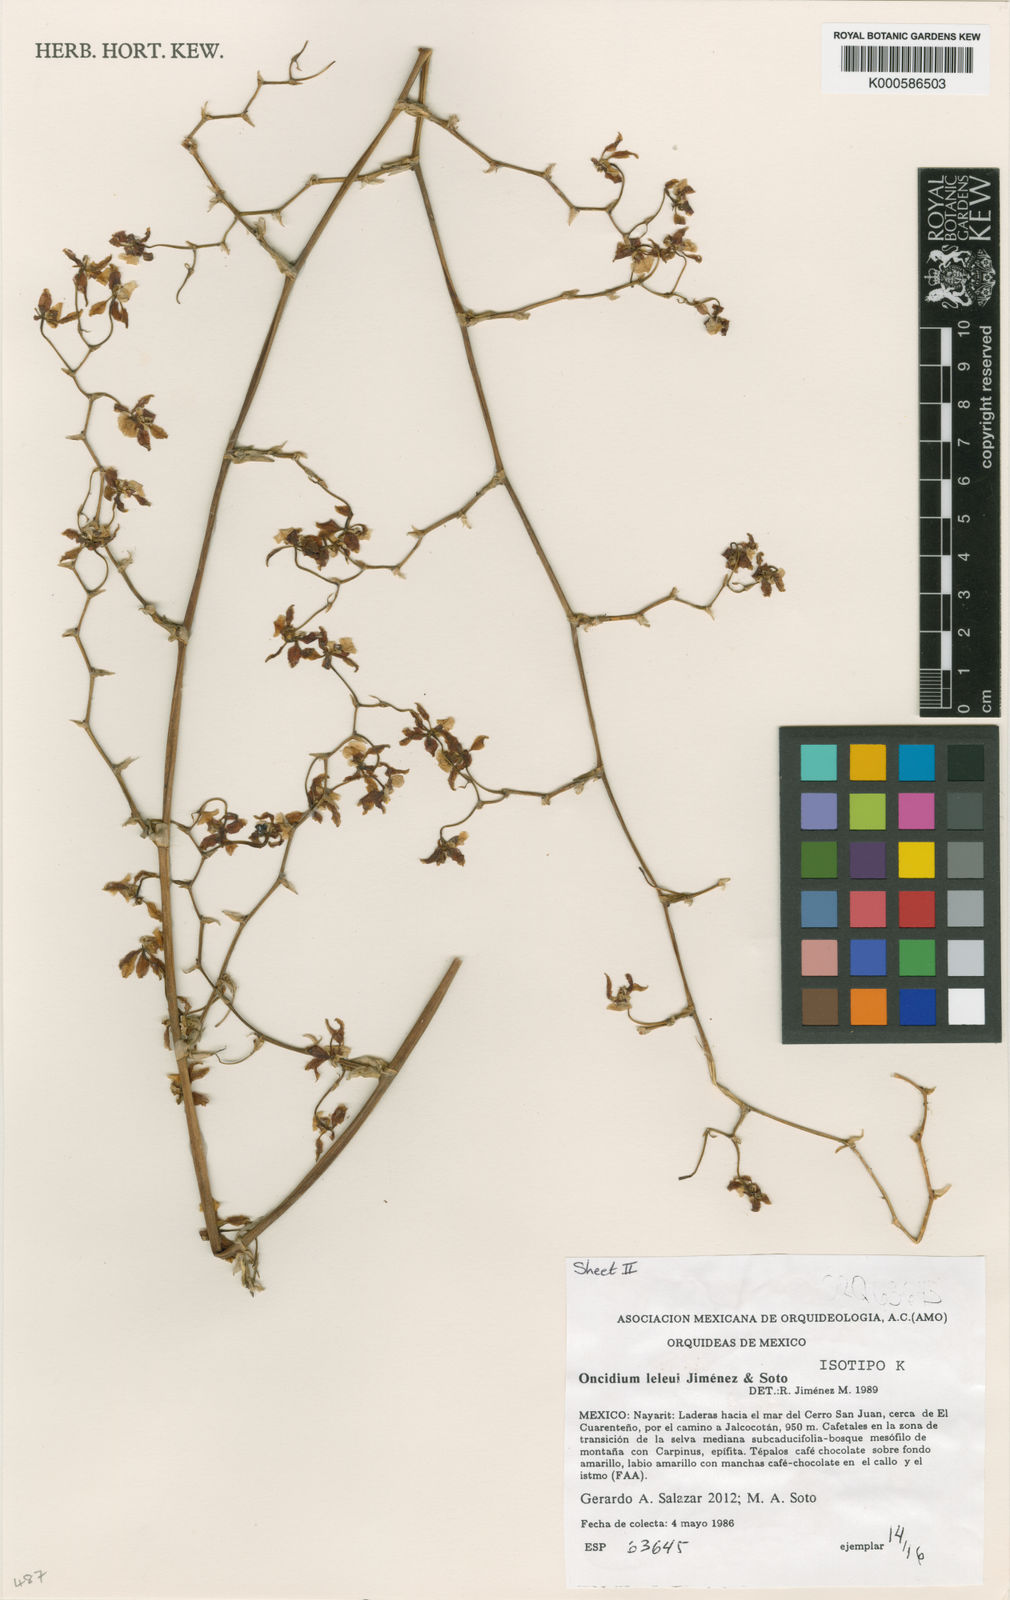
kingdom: Plantae
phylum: Tracheophyta
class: Liliopsida
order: Asparagales
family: Orchidaceae
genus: Oncidium
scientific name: Oncidium
